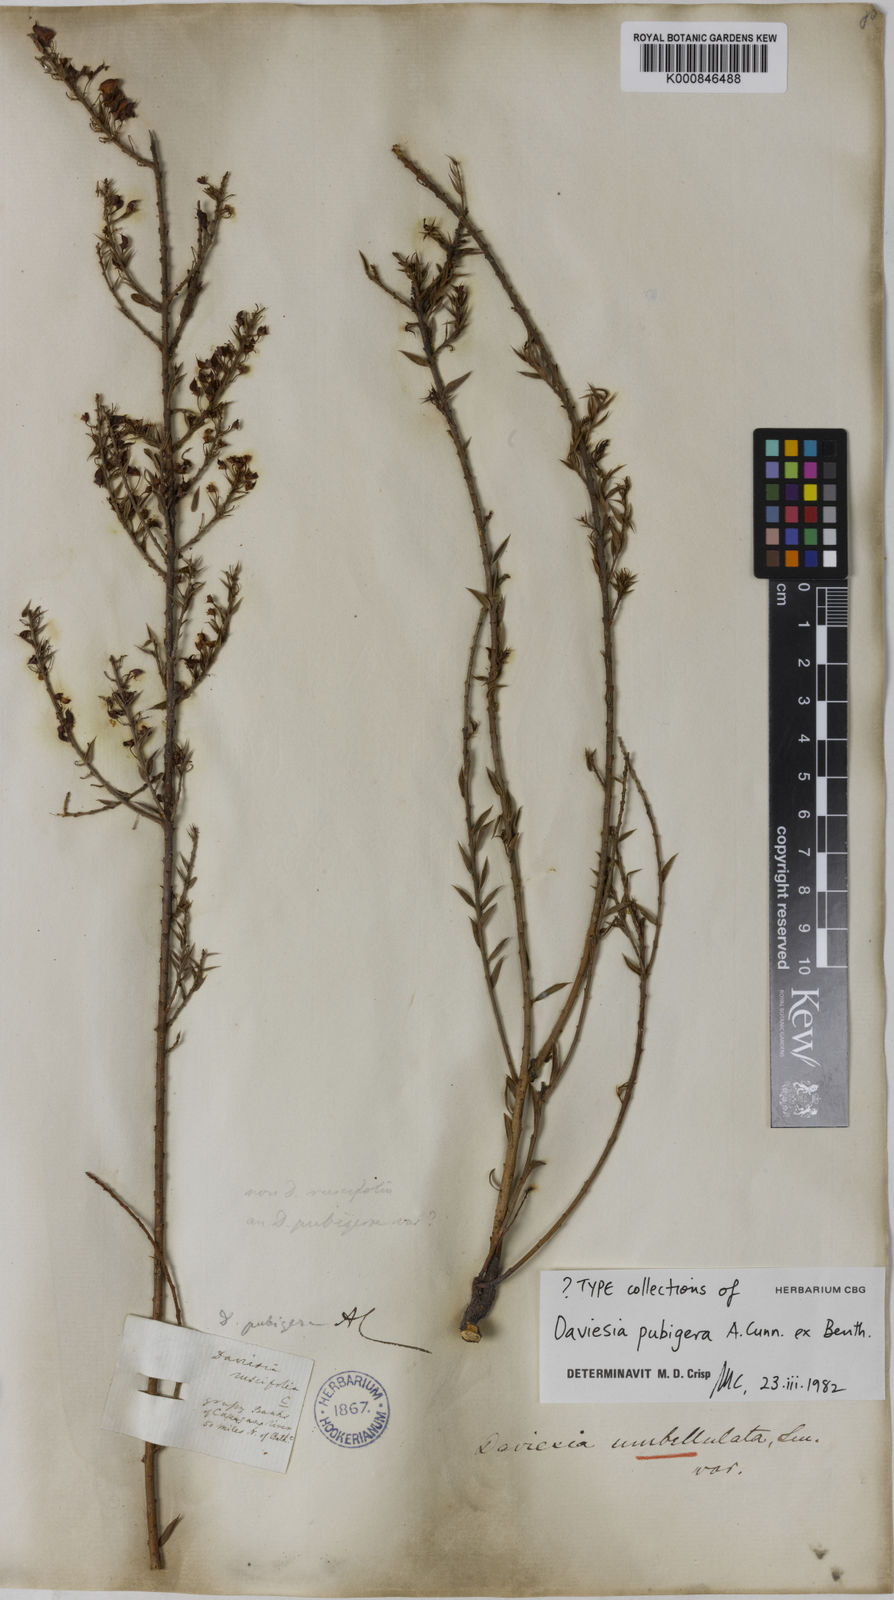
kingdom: Plantae
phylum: Tracheophyta
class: Magnoliopsida
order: Fabales
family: Fabaceae
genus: Daviesia
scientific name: Daviesia pubigera
